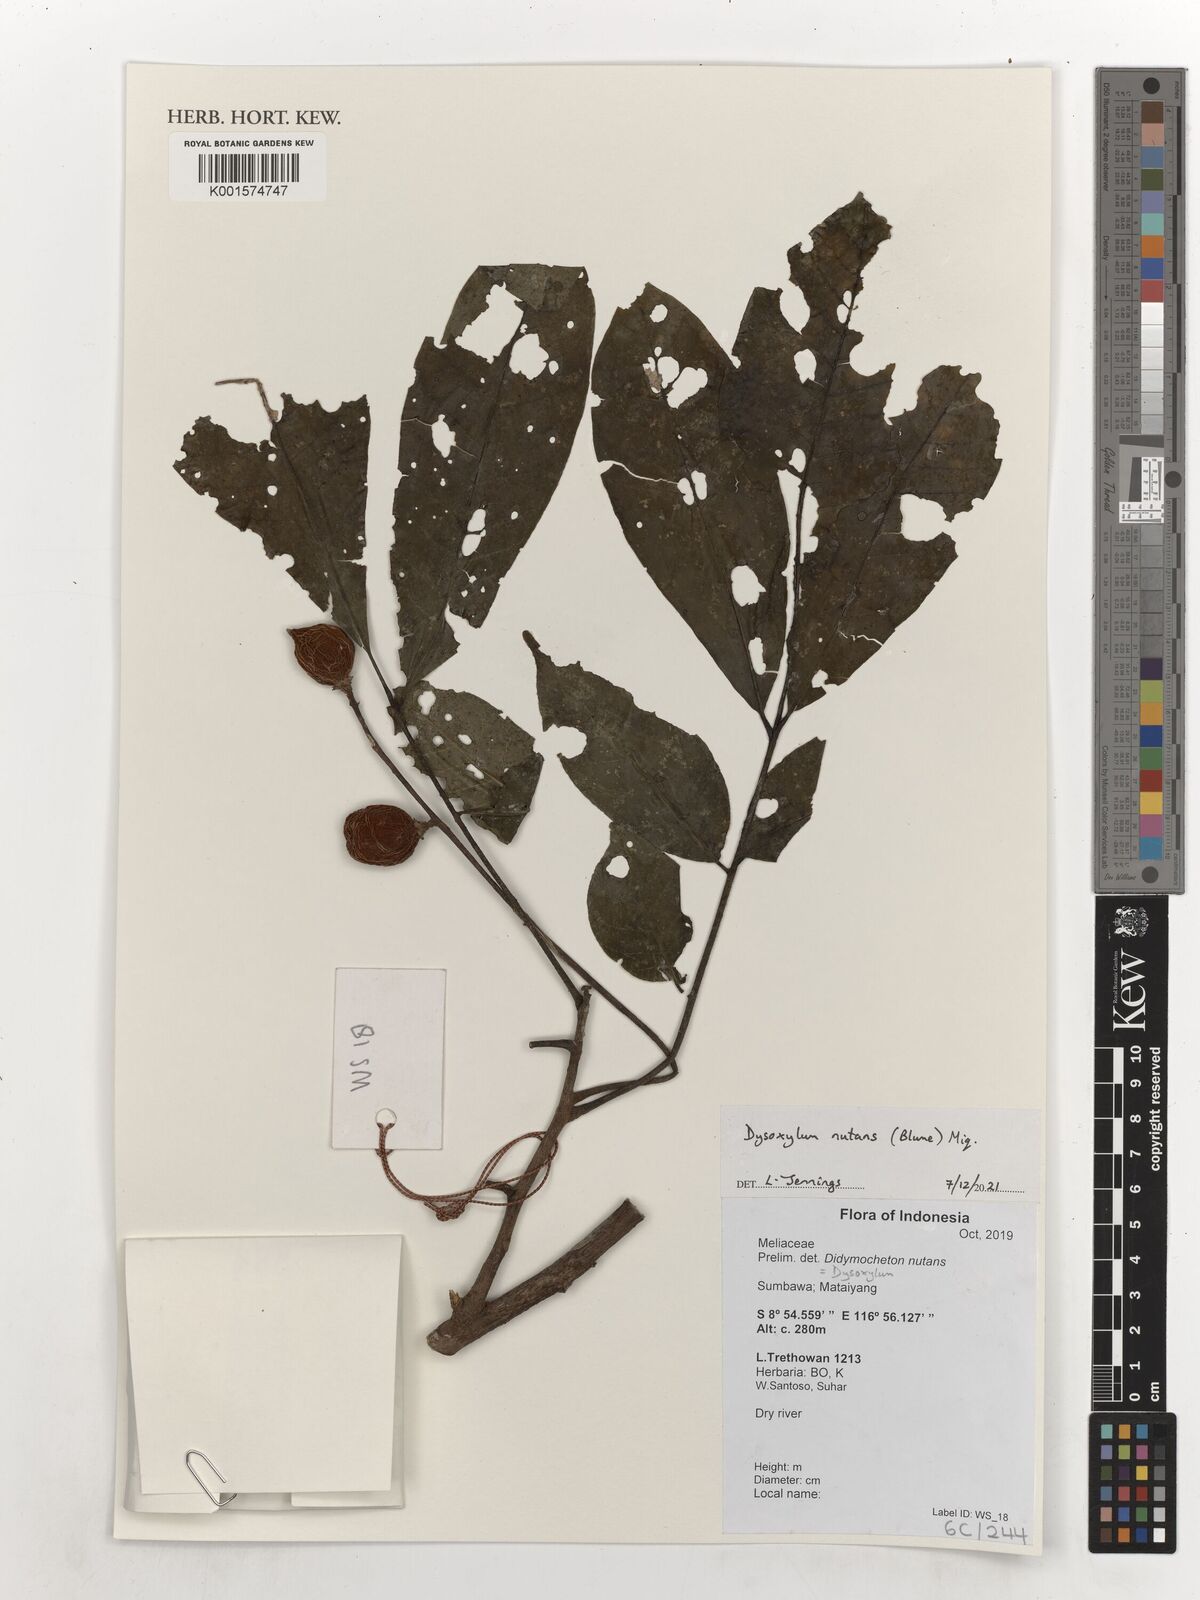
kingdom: Plantae
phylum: Tracheophyta
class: Magnoliopsida
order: Sapindales
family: Meliaceae
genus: Didymocheton
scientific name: Didymocheton nutans
